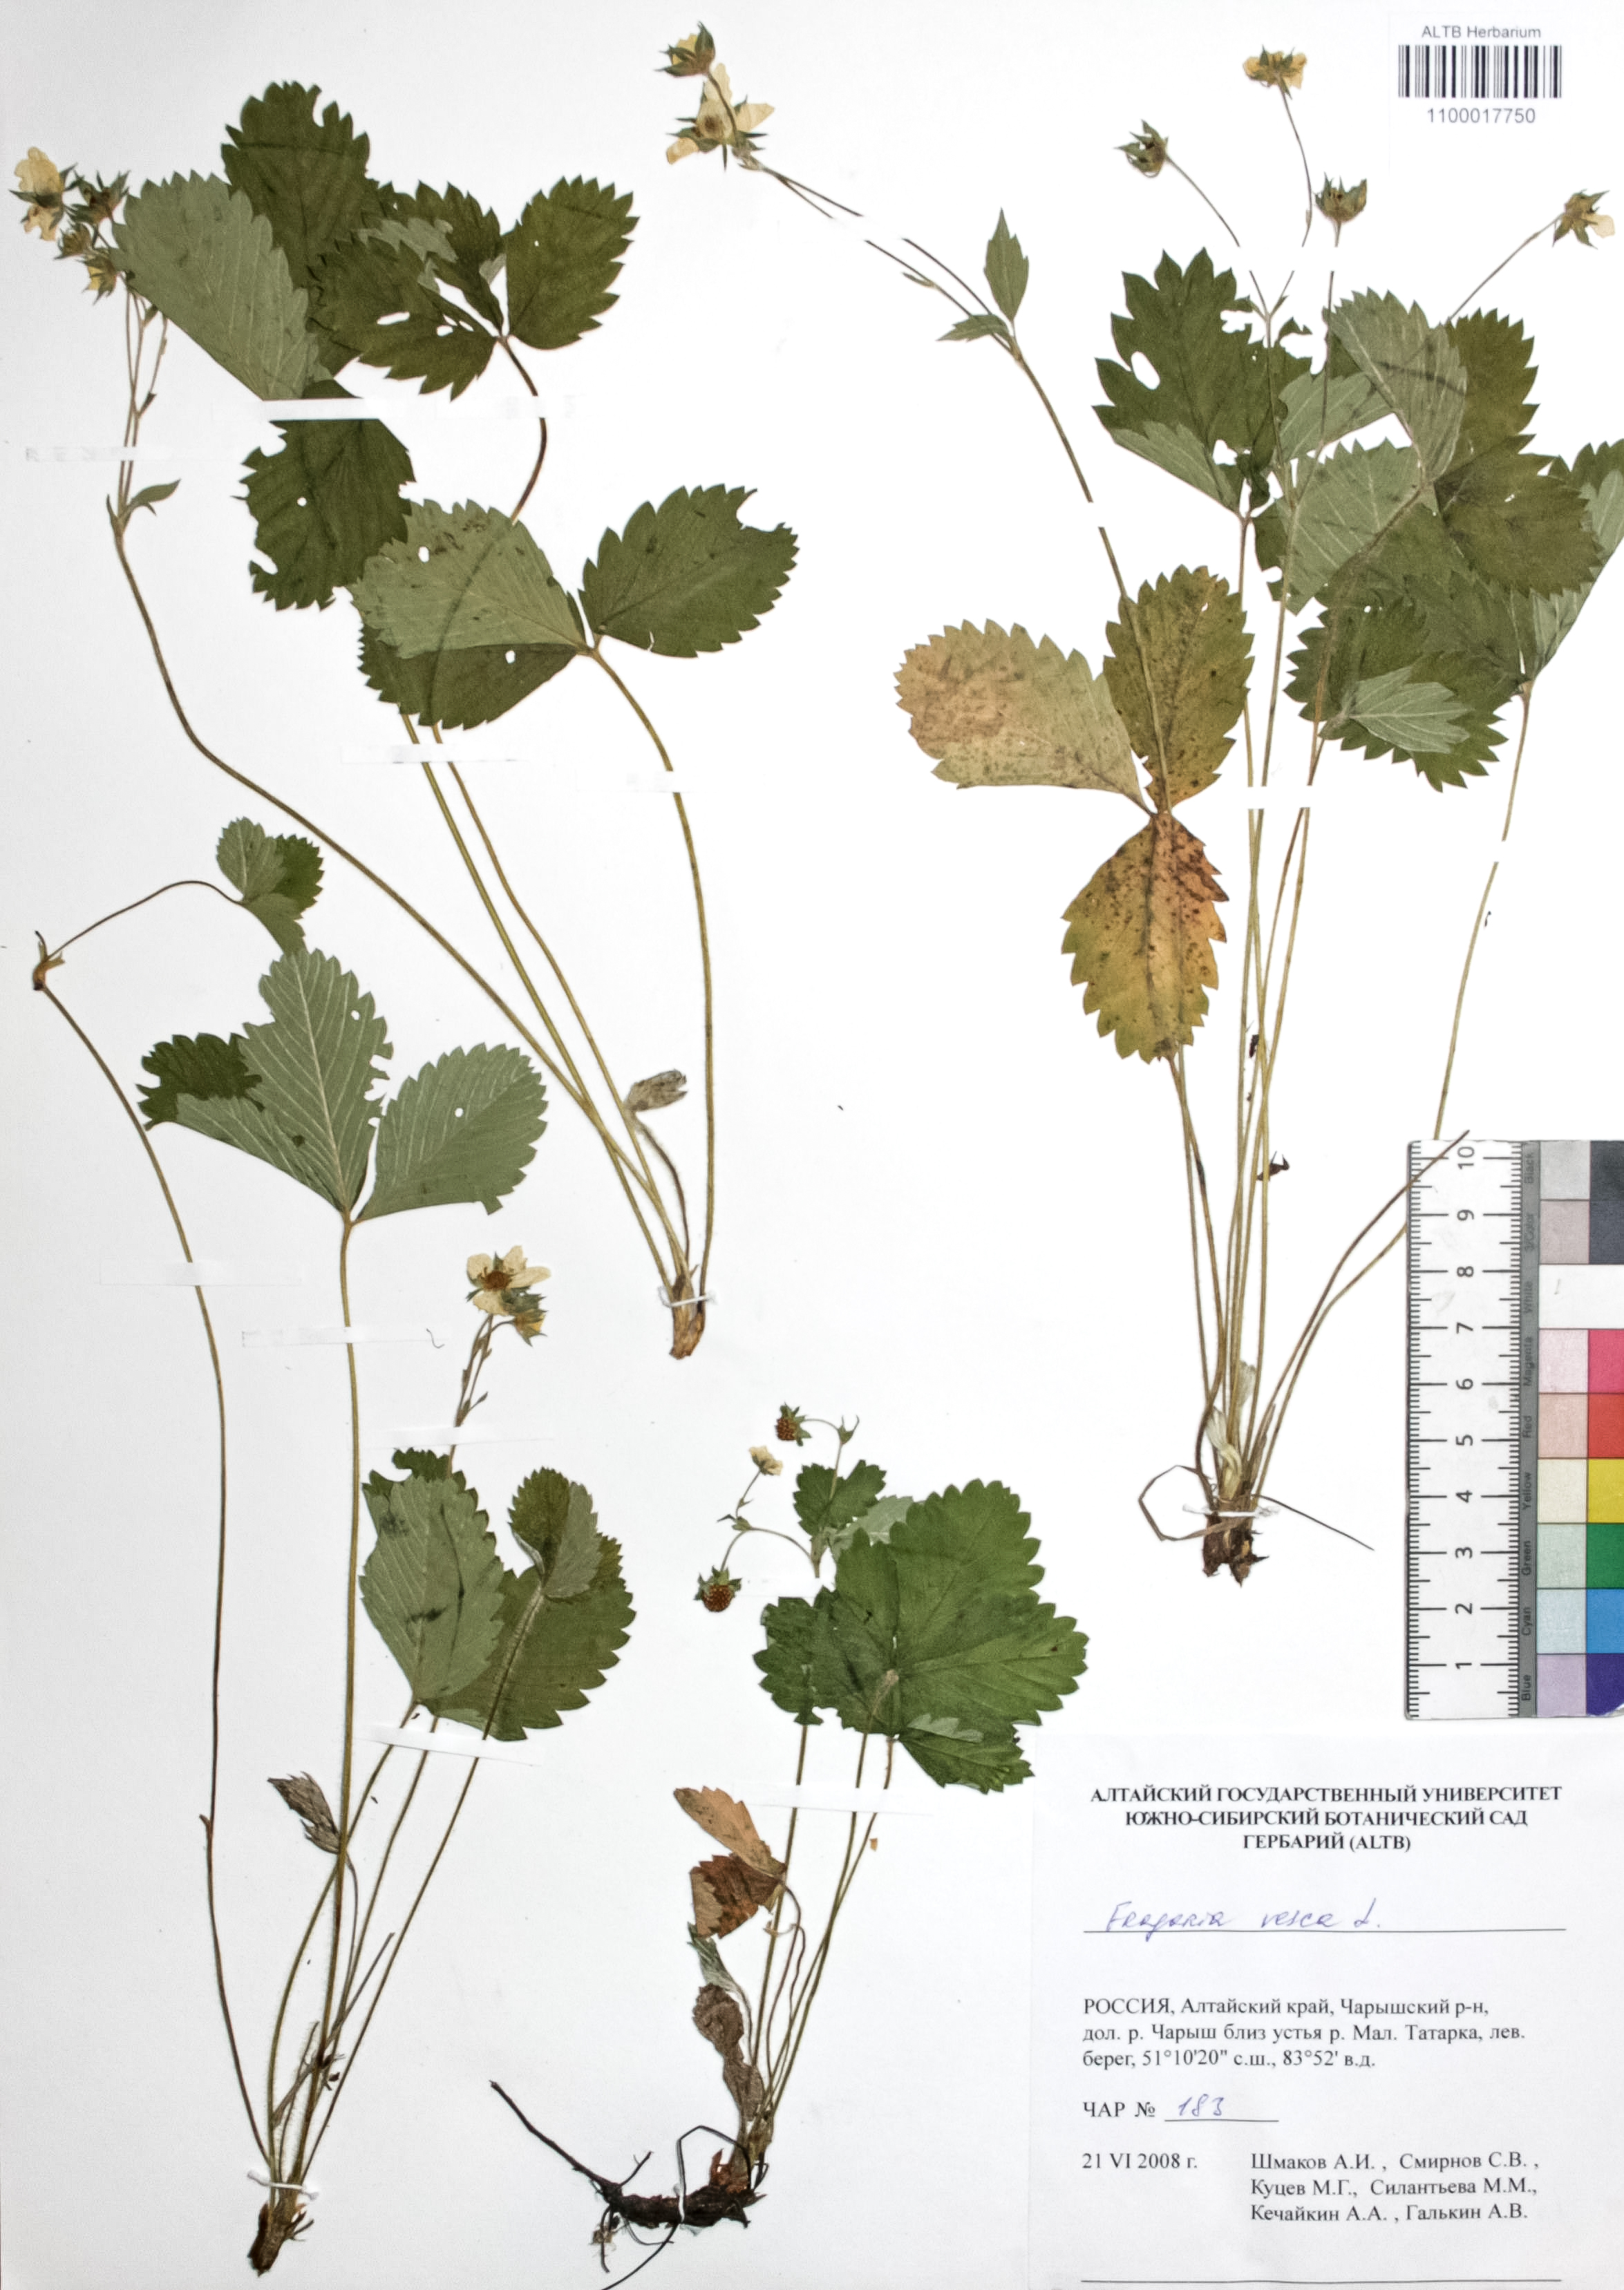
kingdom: Plantae
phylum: Tracheophyta
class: Magnoliopsida
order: Rosales
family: Rosaceae
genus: Fragaria
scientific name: Fragaria vesca
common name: Wild strawberry
